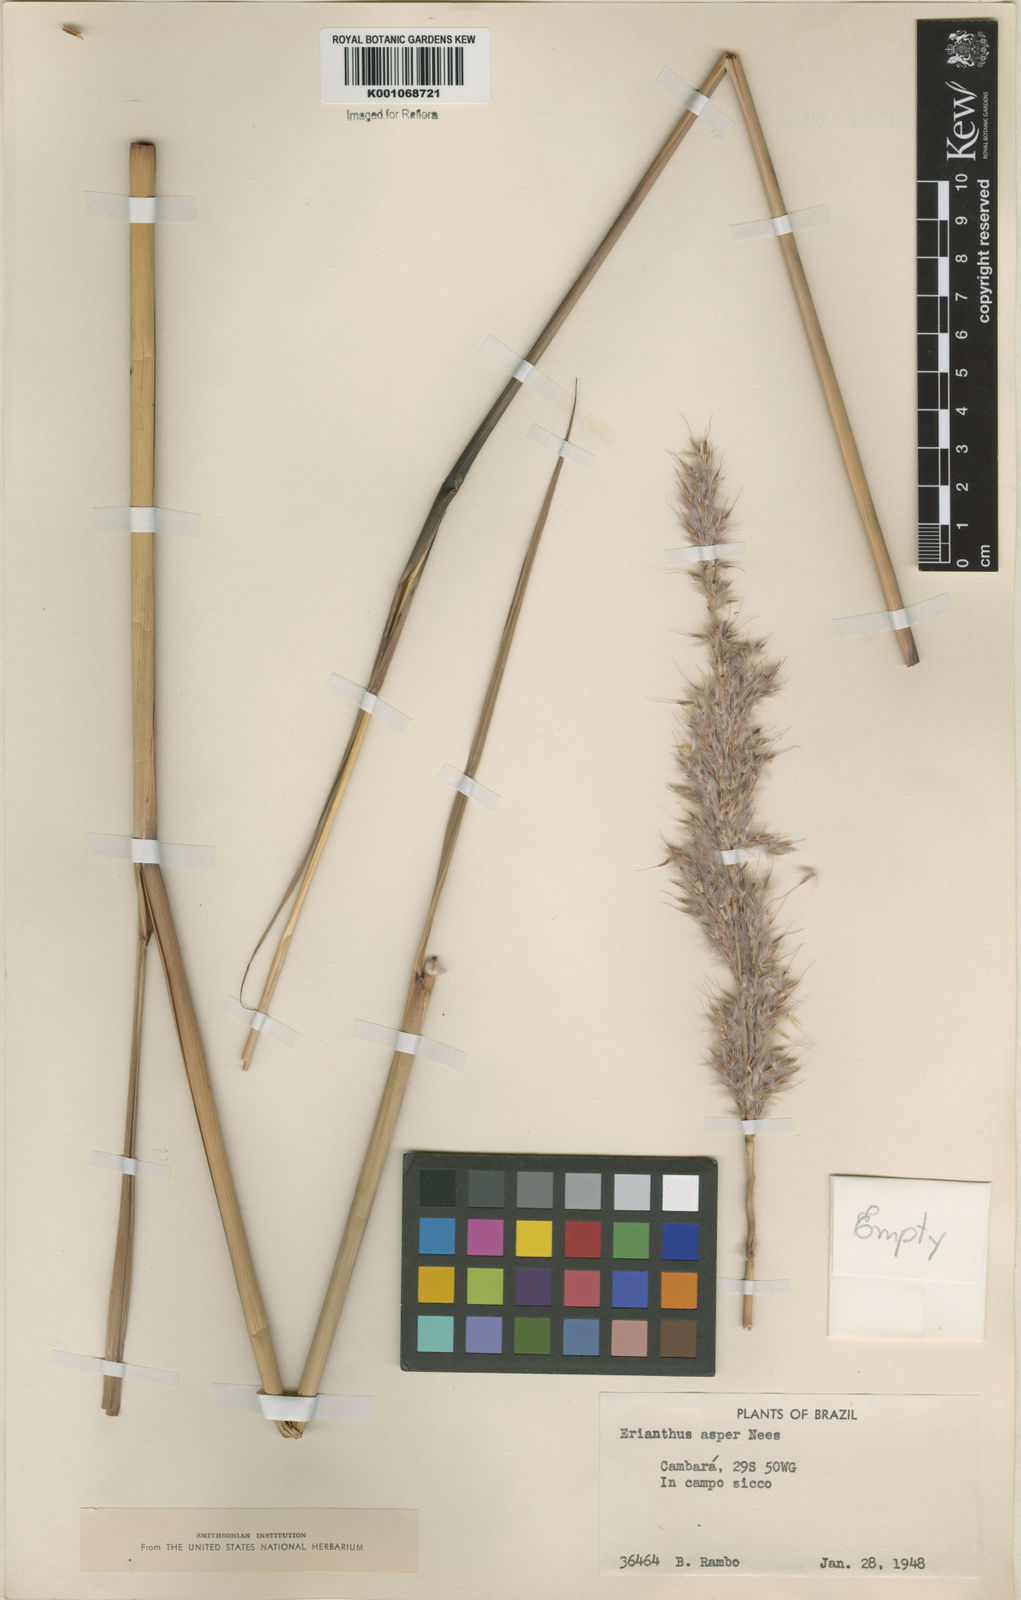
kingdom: Plantae
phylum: Tracheophyta
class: Liliopsida
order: Poales
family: Poaceae
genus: Saccharum
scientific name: Saccharum angustifolium
